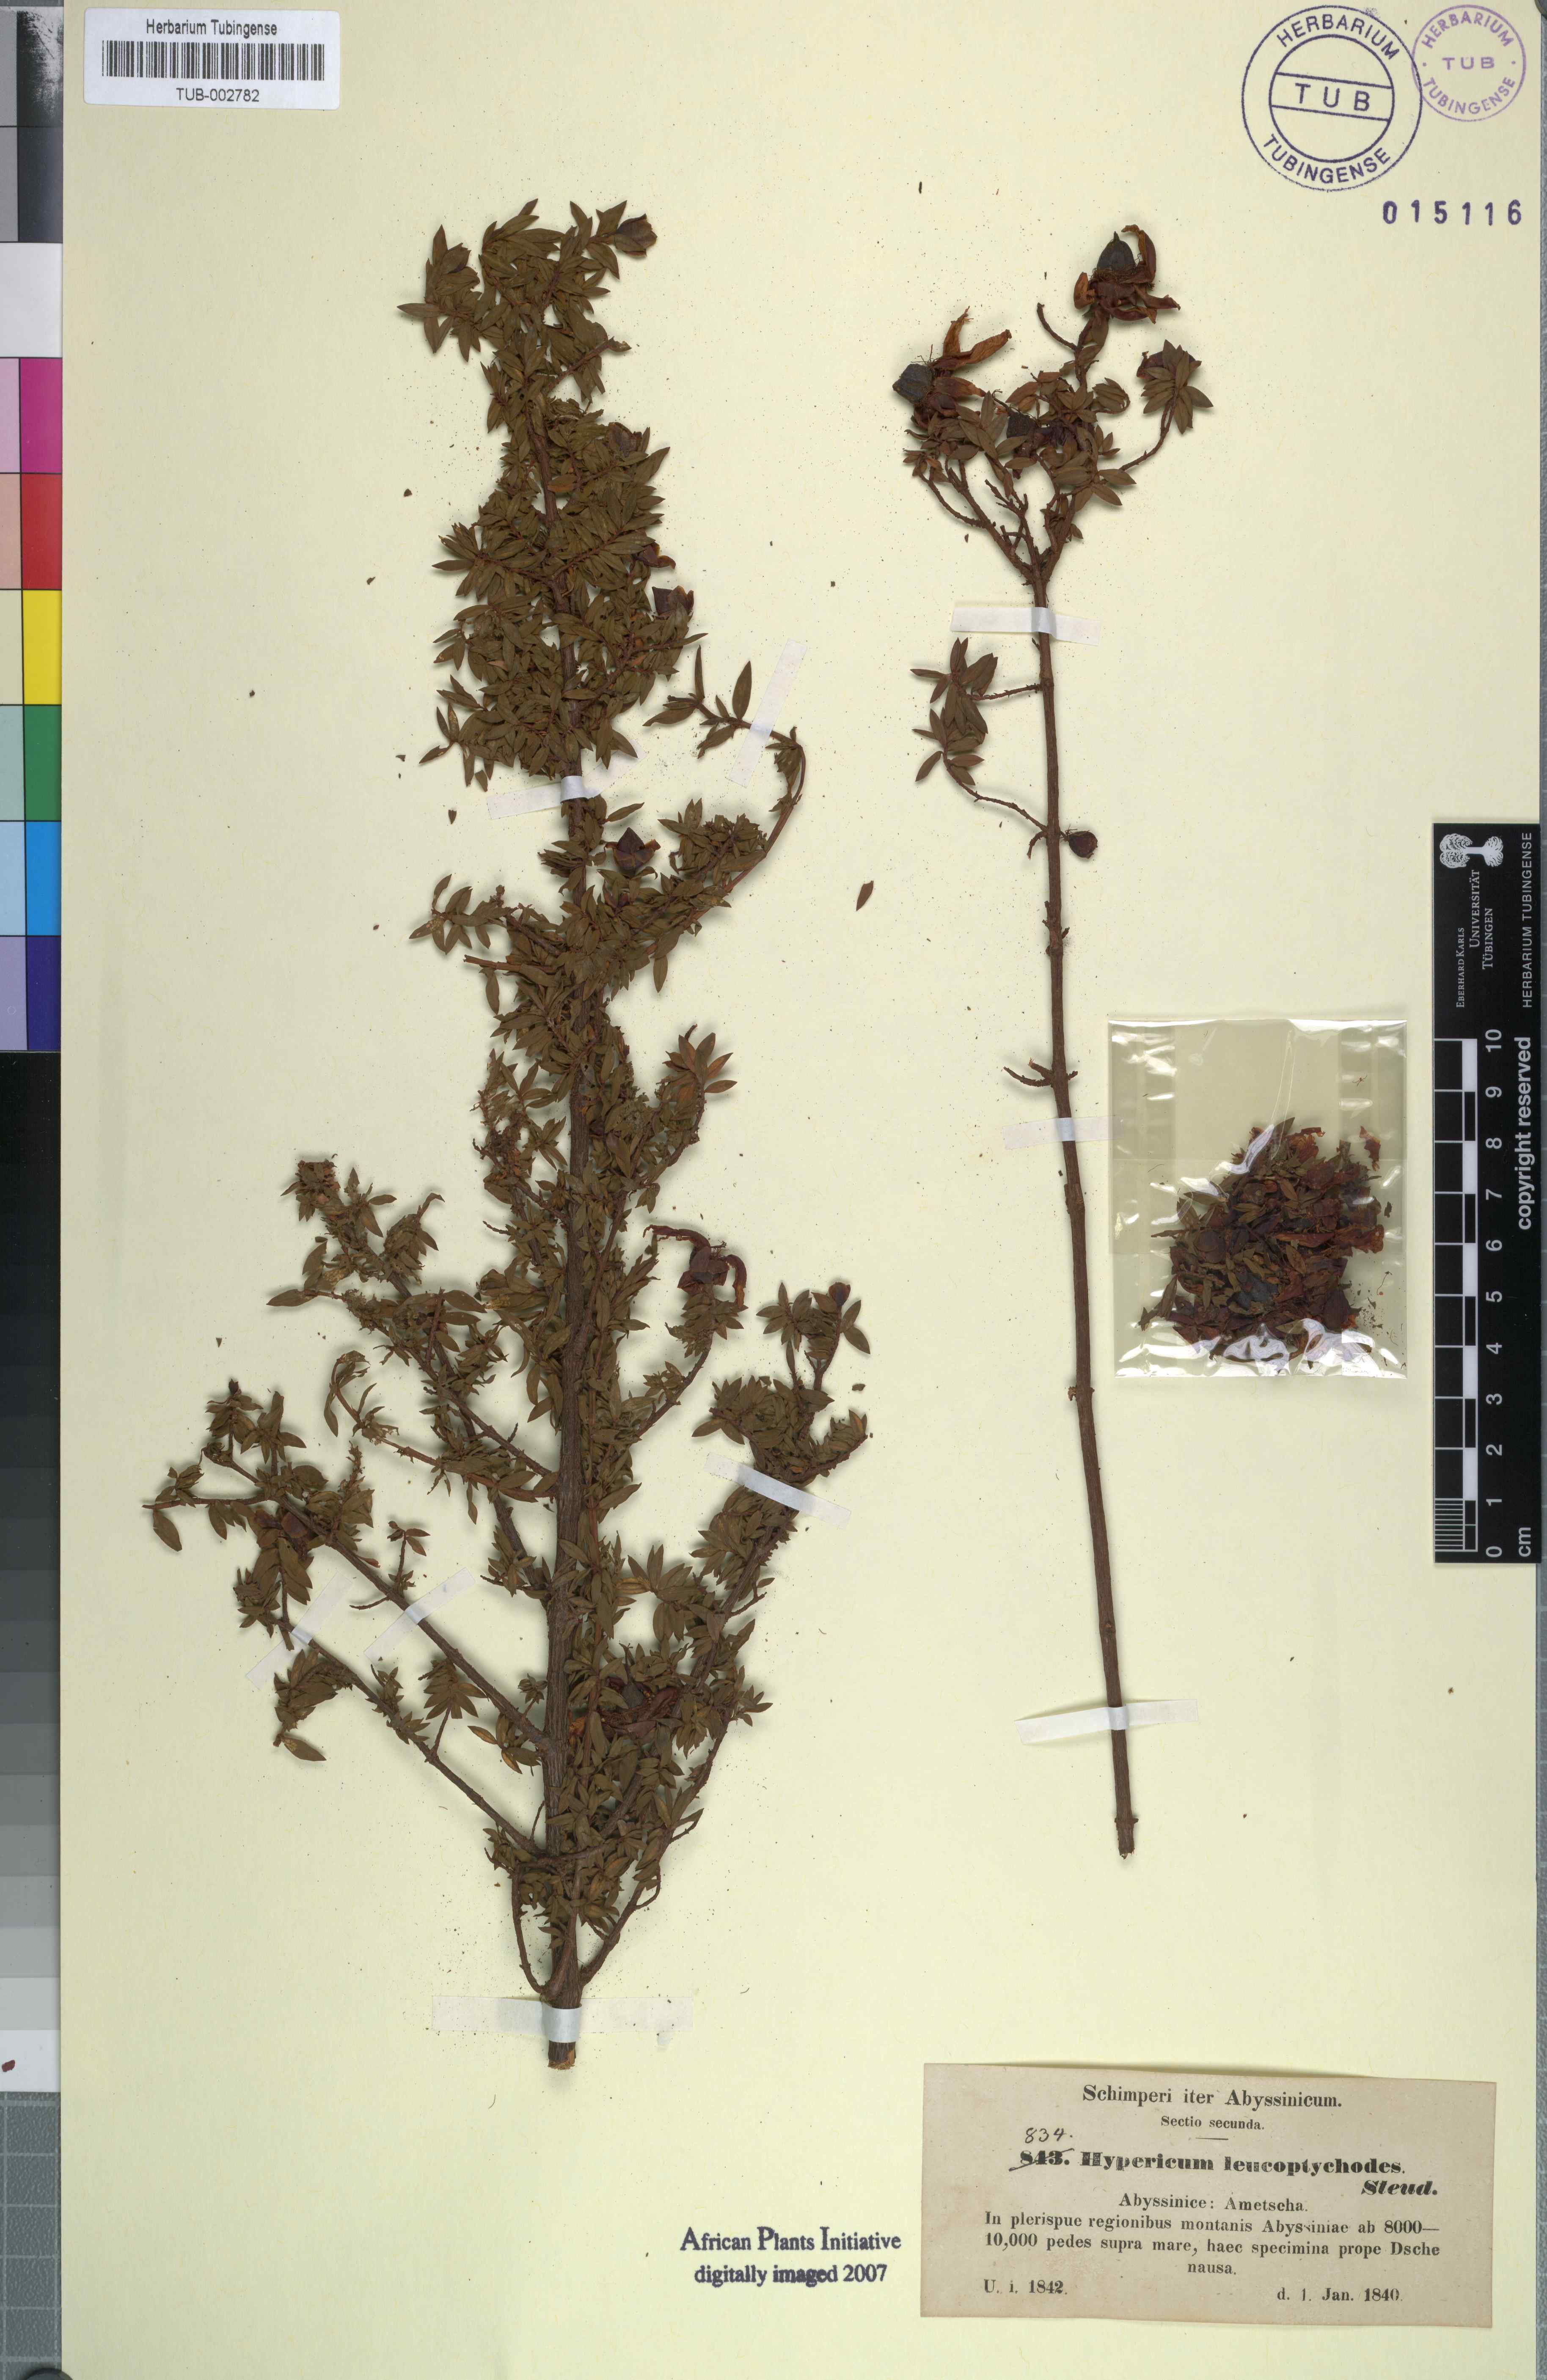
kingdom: Plantae
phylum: Tracheophyta
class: Magnoliopsida
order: Malpighiales
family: Hypericaceae
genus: Hypericum
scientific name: Hypericum lanceolatum
